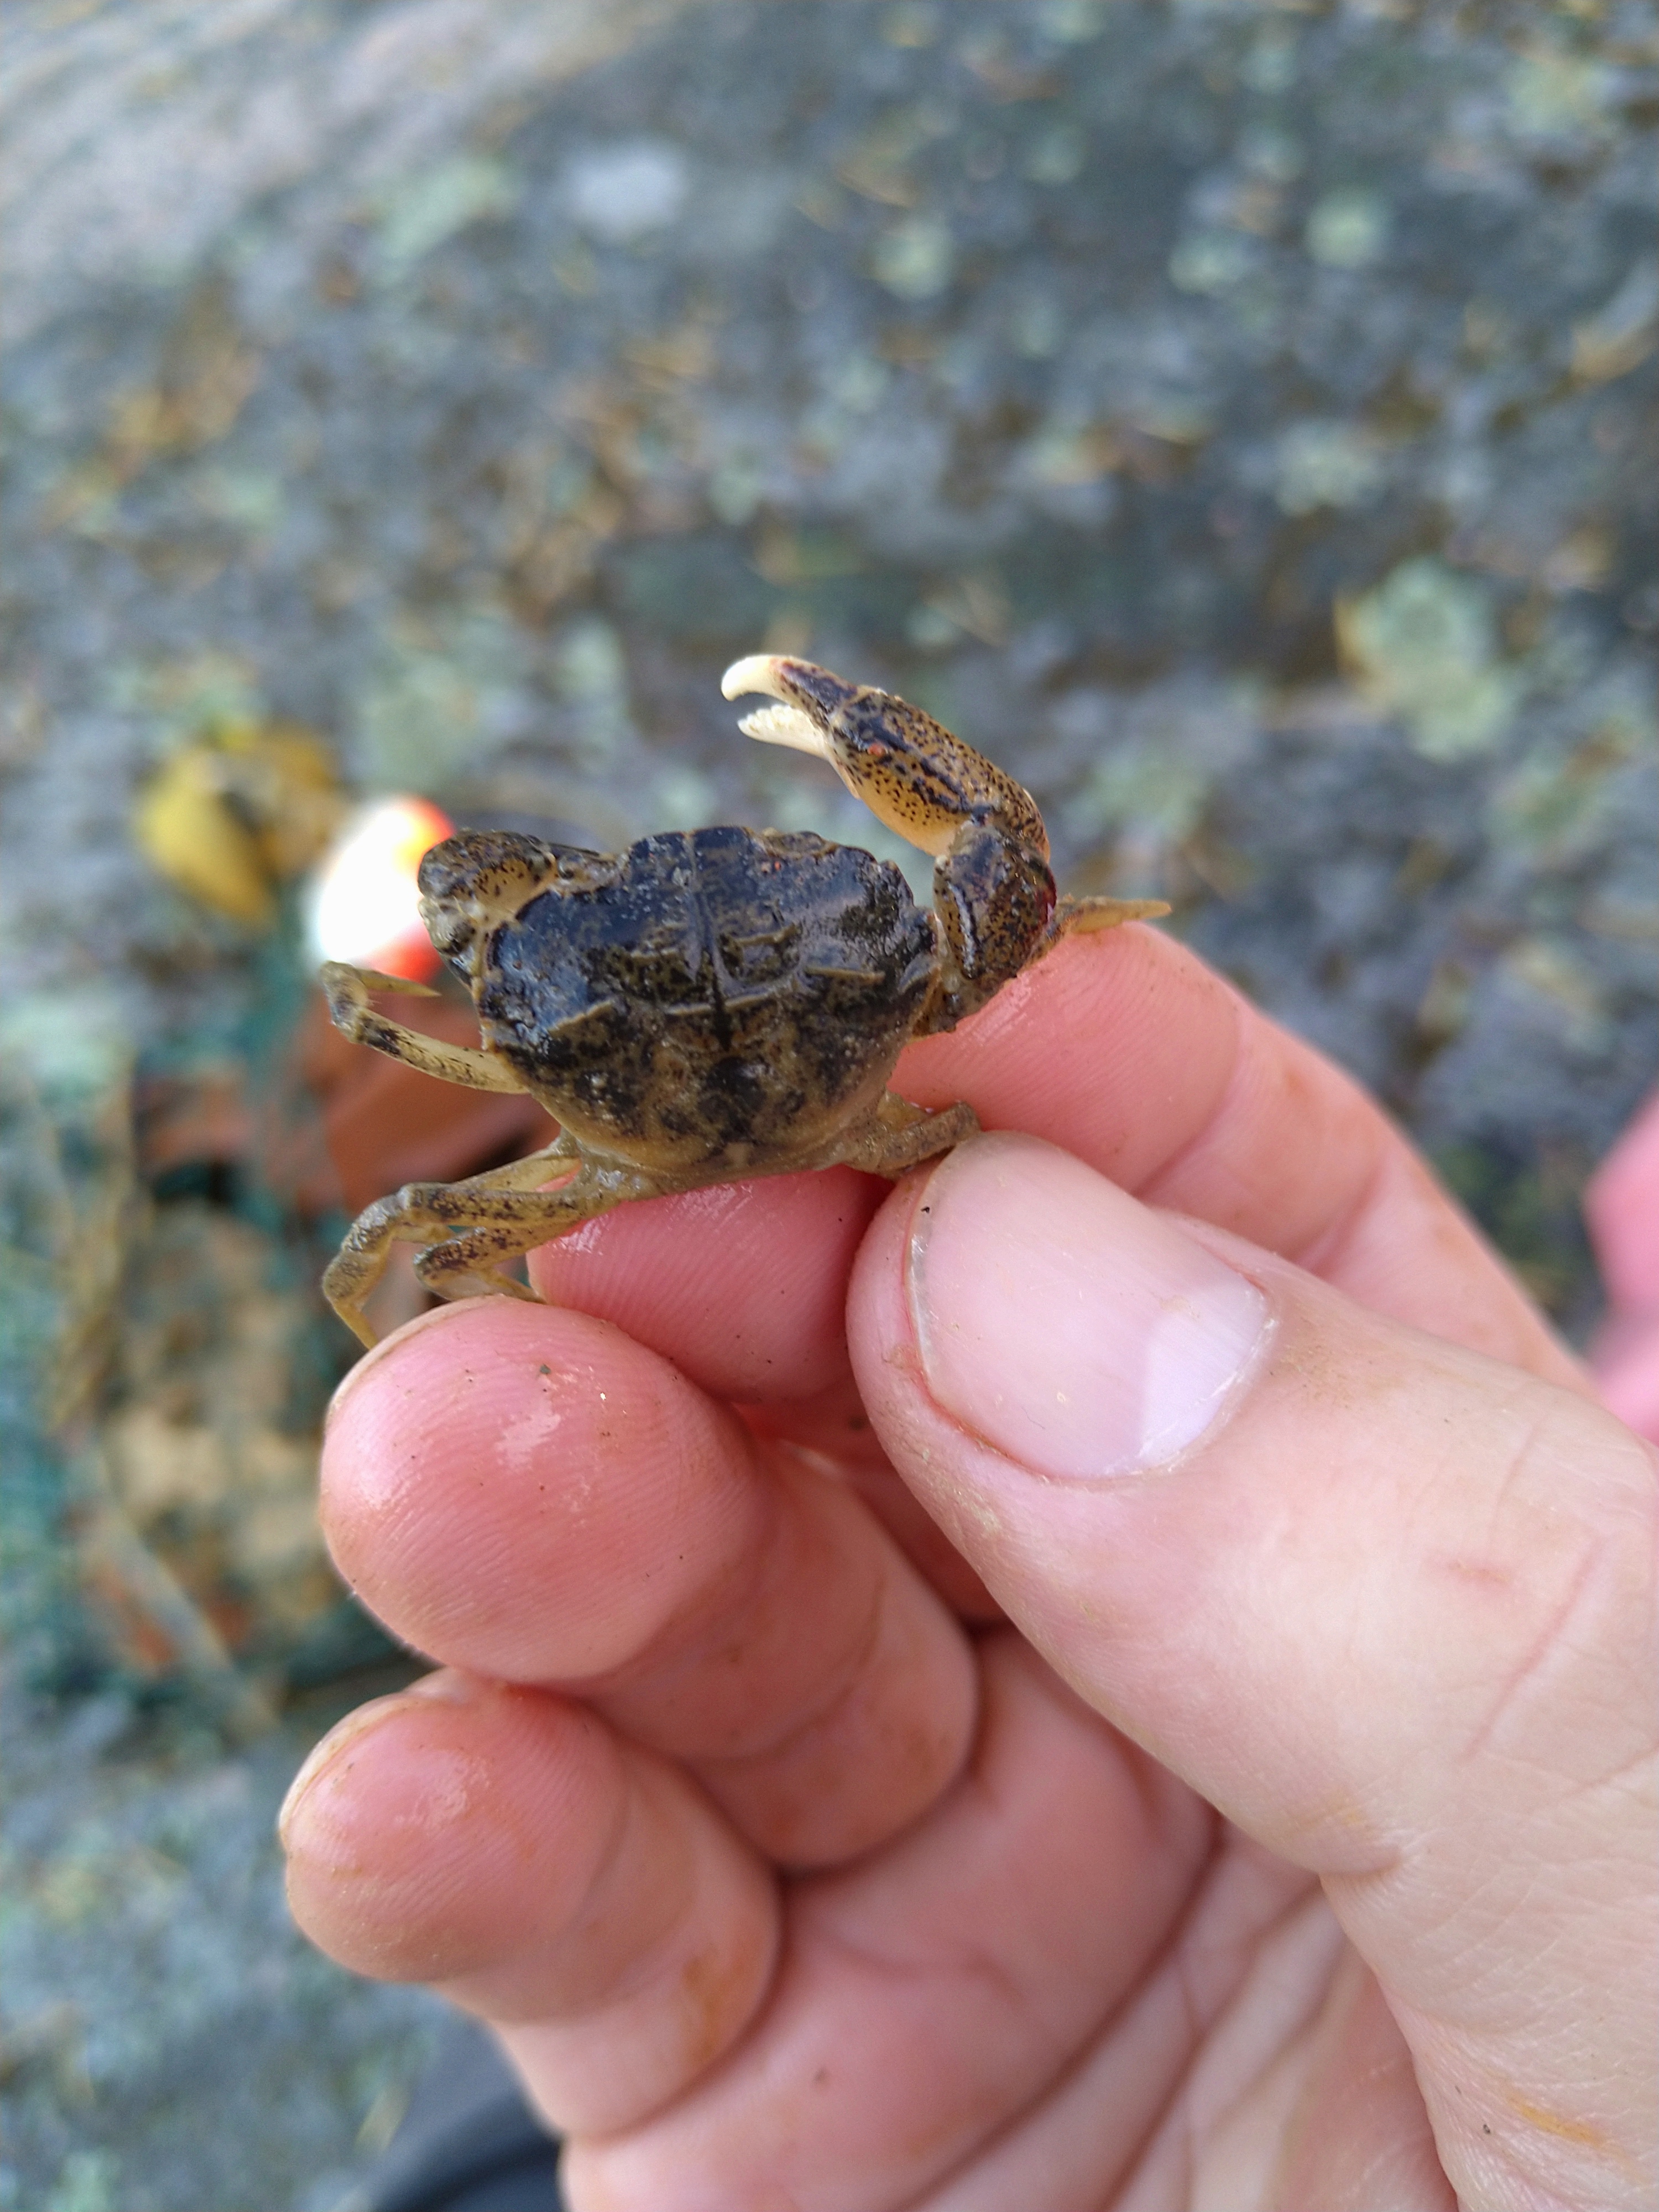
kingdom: Animalia
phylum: Arthropoda
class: Malacostraca
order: Decapoda
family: Panopeidae
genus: Rhithropanopeus
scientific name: Rhithropanopeus harrisii
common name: Dwarf crab
